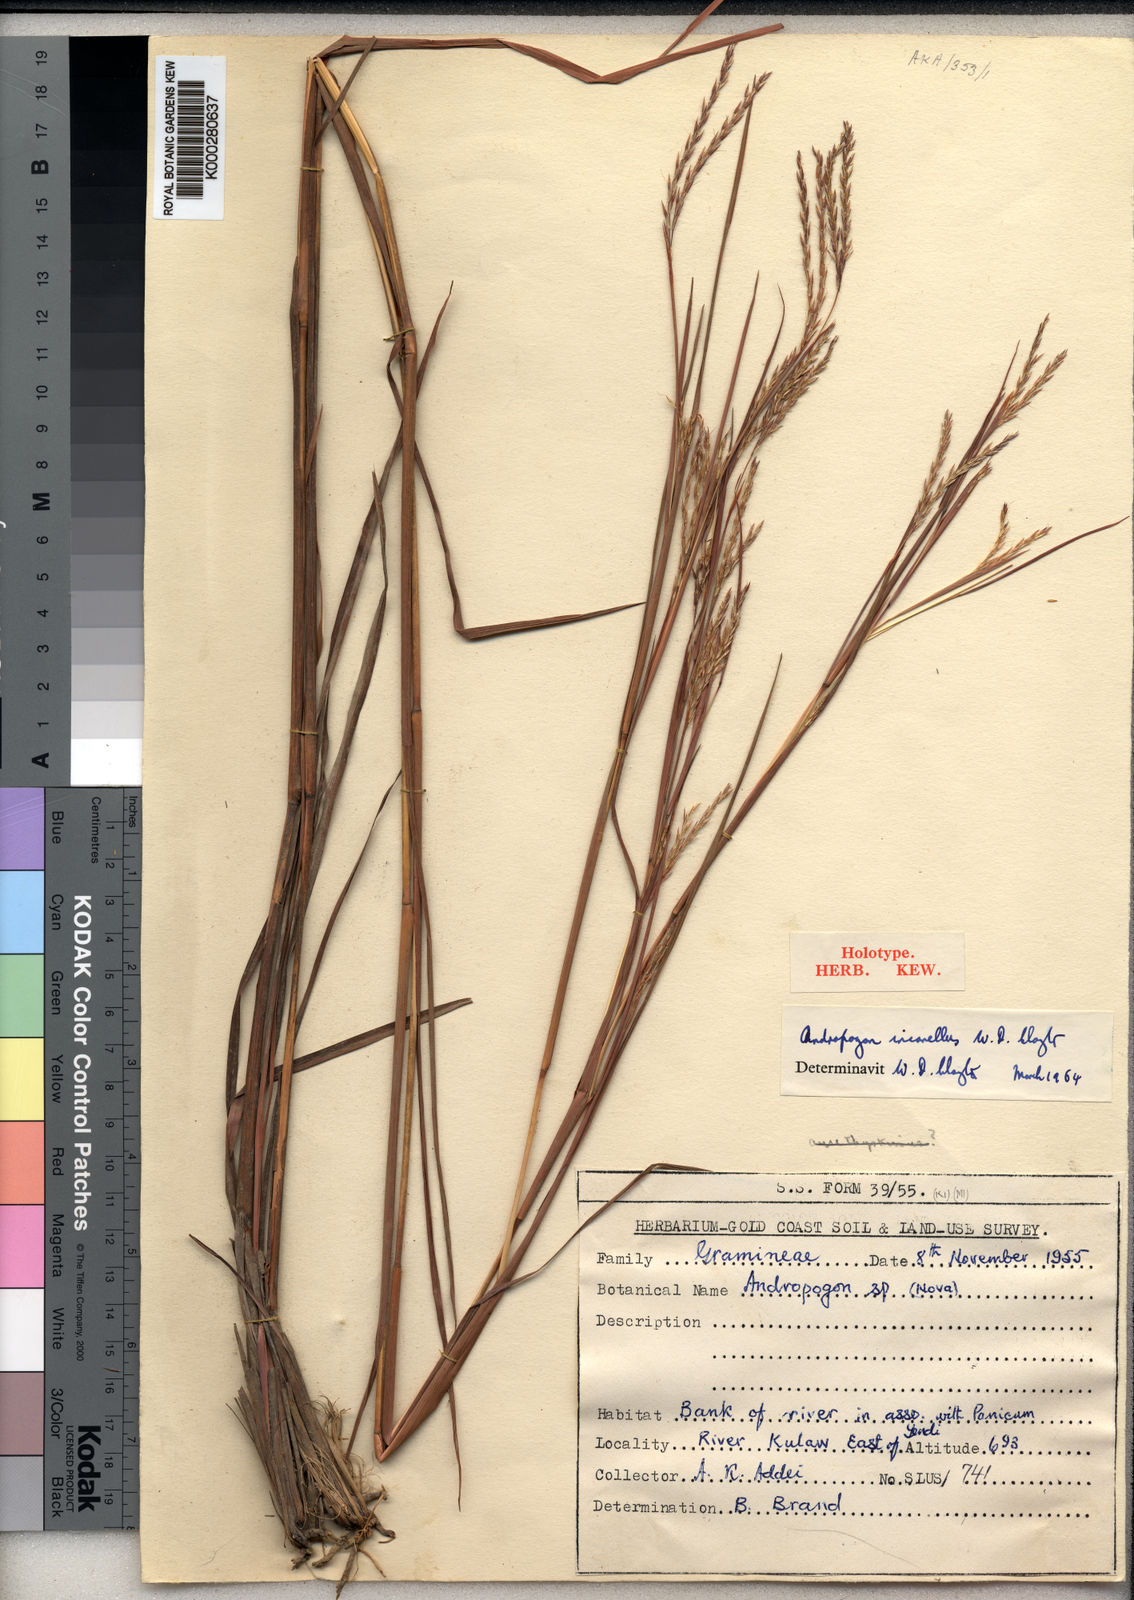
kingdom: Plantae
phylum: Tracheophyta
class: Liliopsida
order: Poales
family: Poaceae
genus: Andropogon
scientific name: Andropogon africanus
